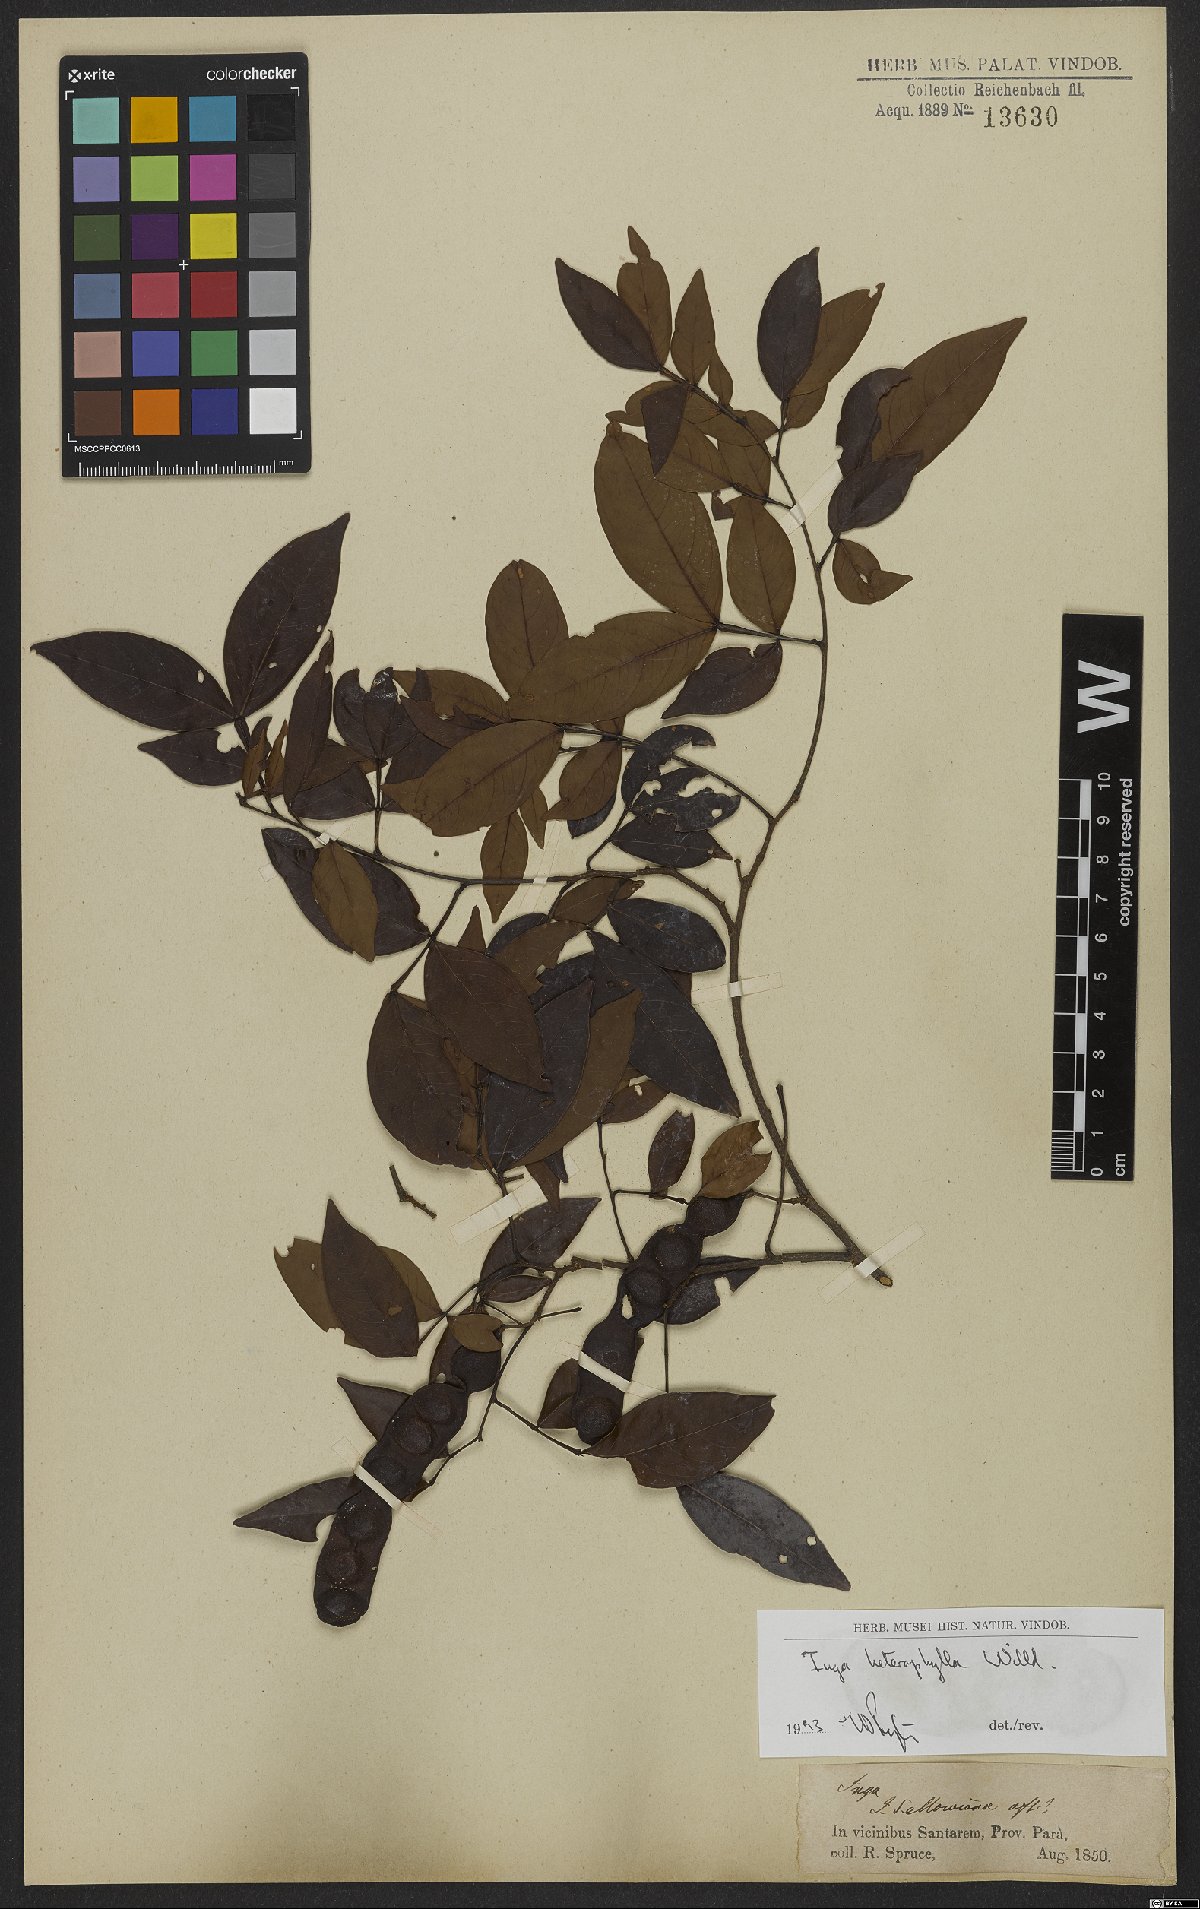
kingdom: Plantae
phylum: Tracheophyta
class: Magnoliopsida
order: Fabales
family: Fabaceae
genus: Inga
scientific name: Inga heterophylla
